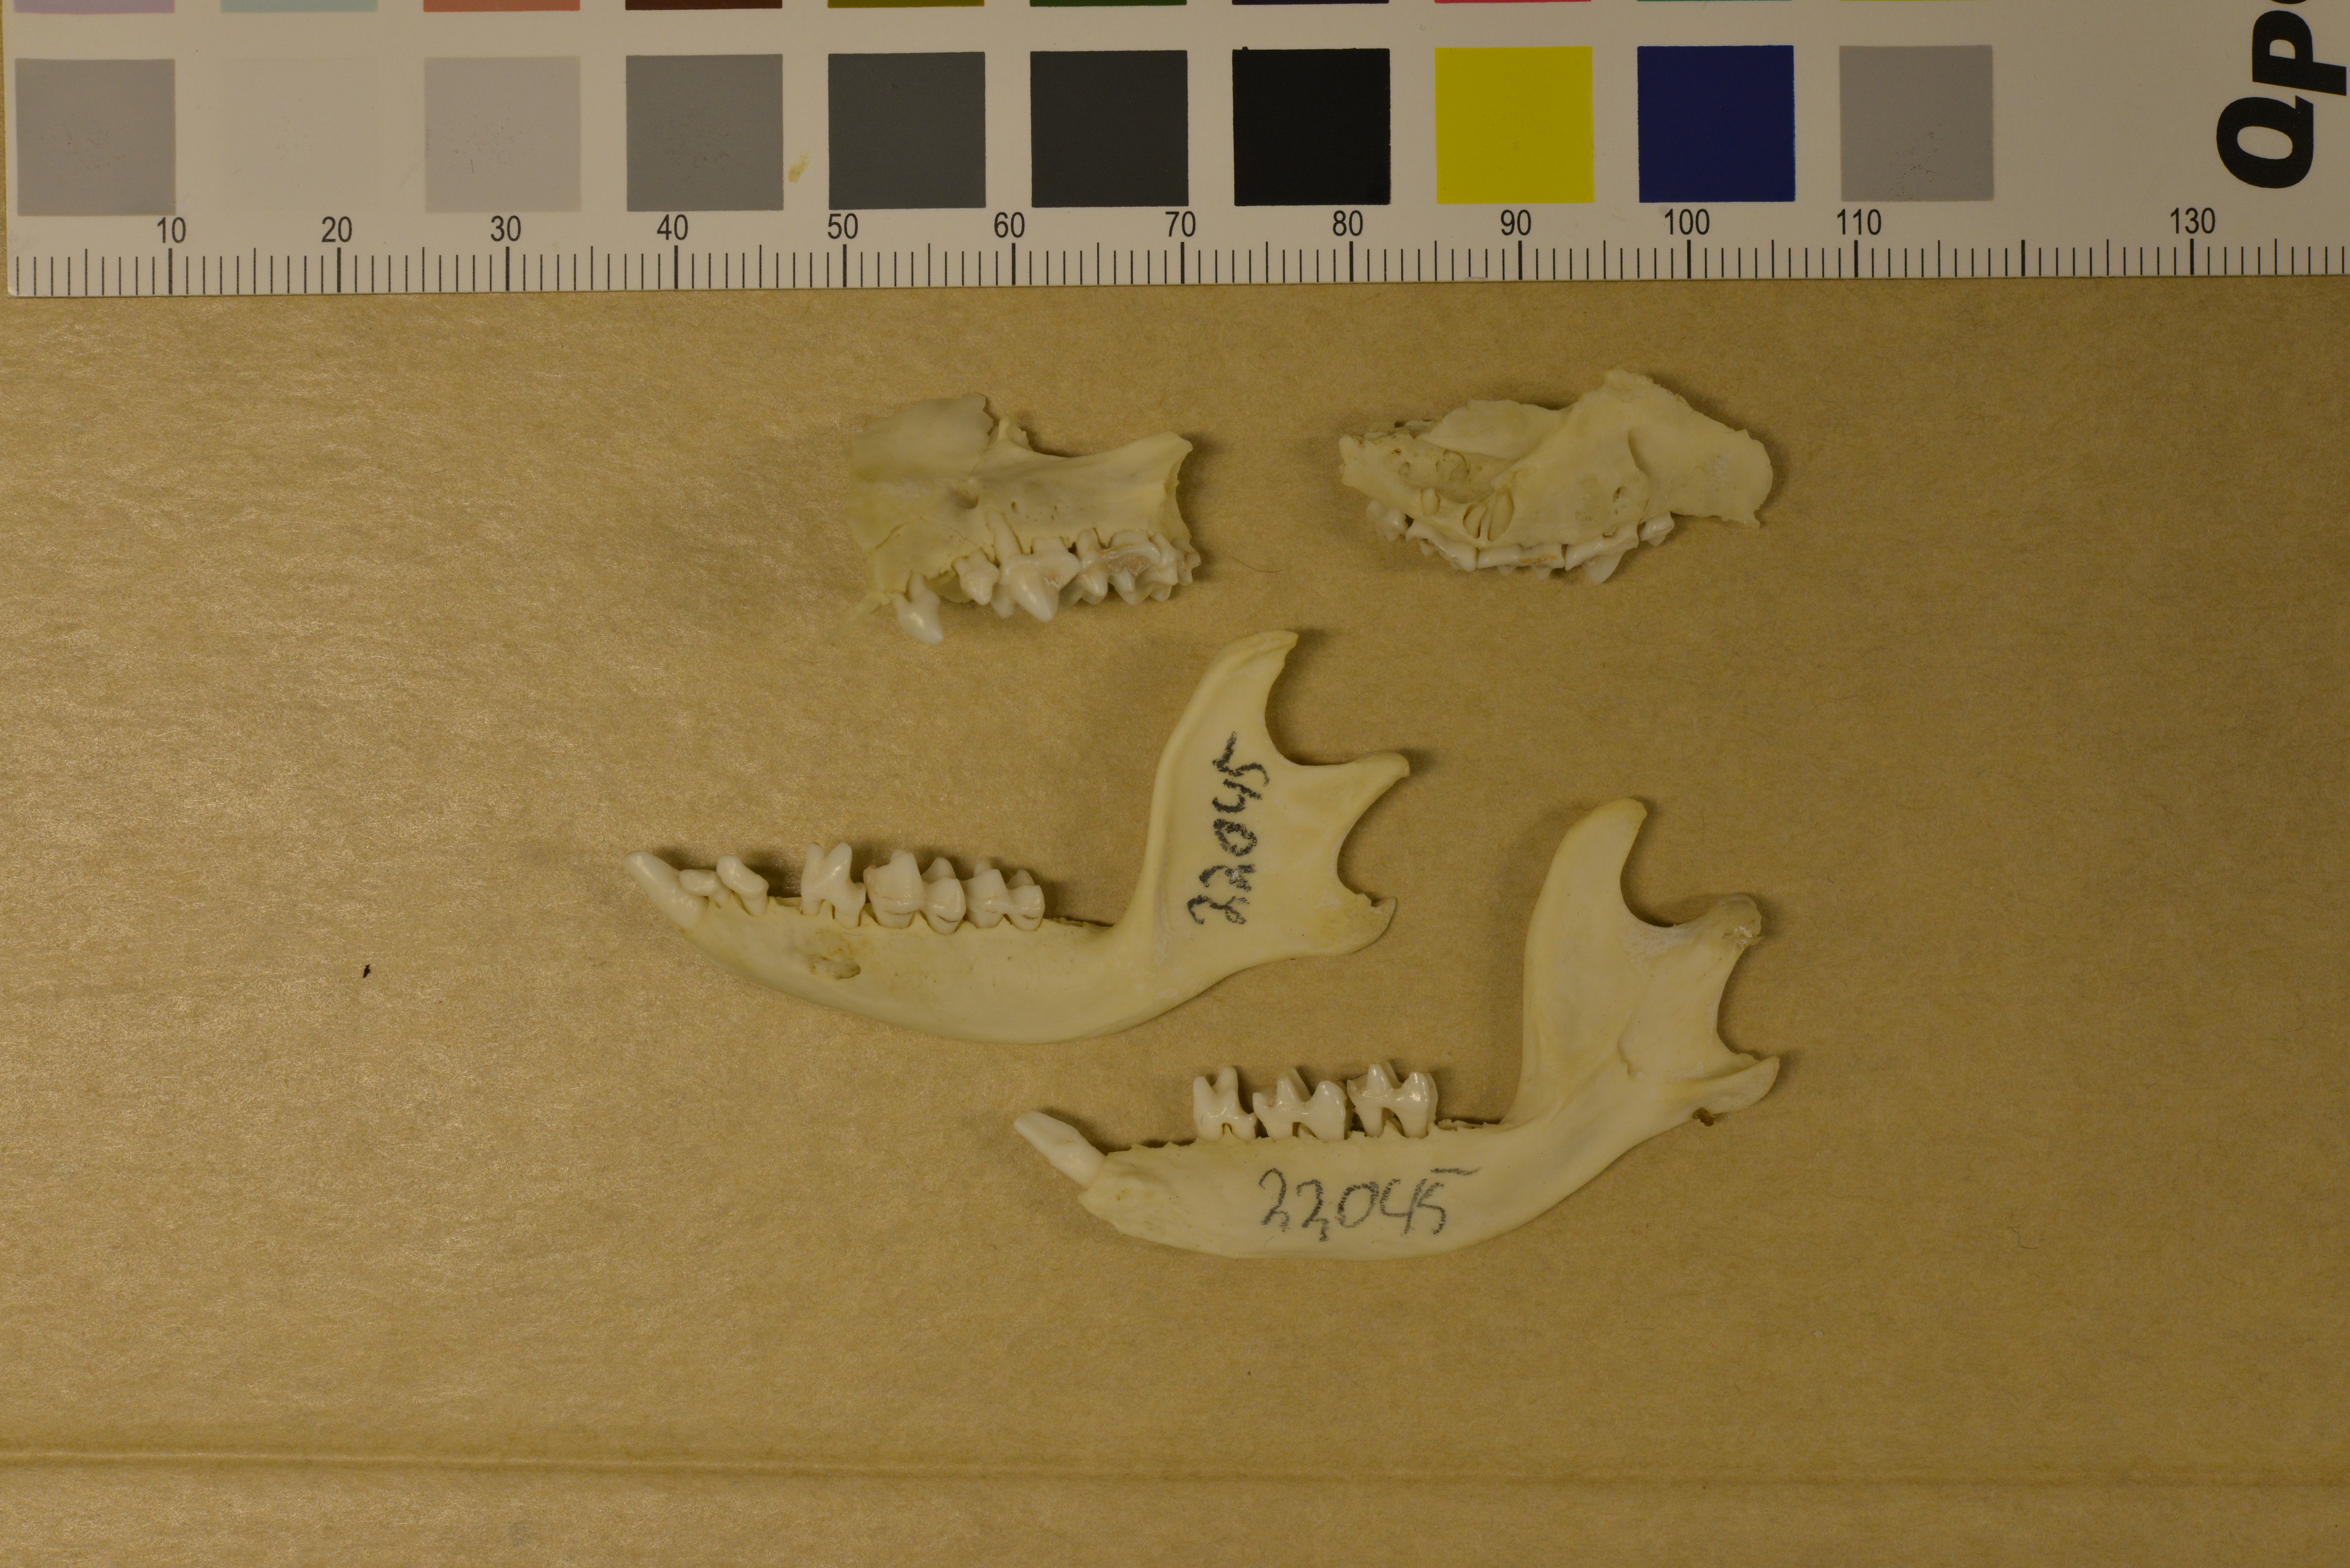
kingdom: Animalia
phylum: Chordata
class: Mammalia
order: Erinaceomorpha
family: Erinaceidae
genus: Erinaceus
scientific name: Erinaceus europaeus
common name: West european hedgehog
